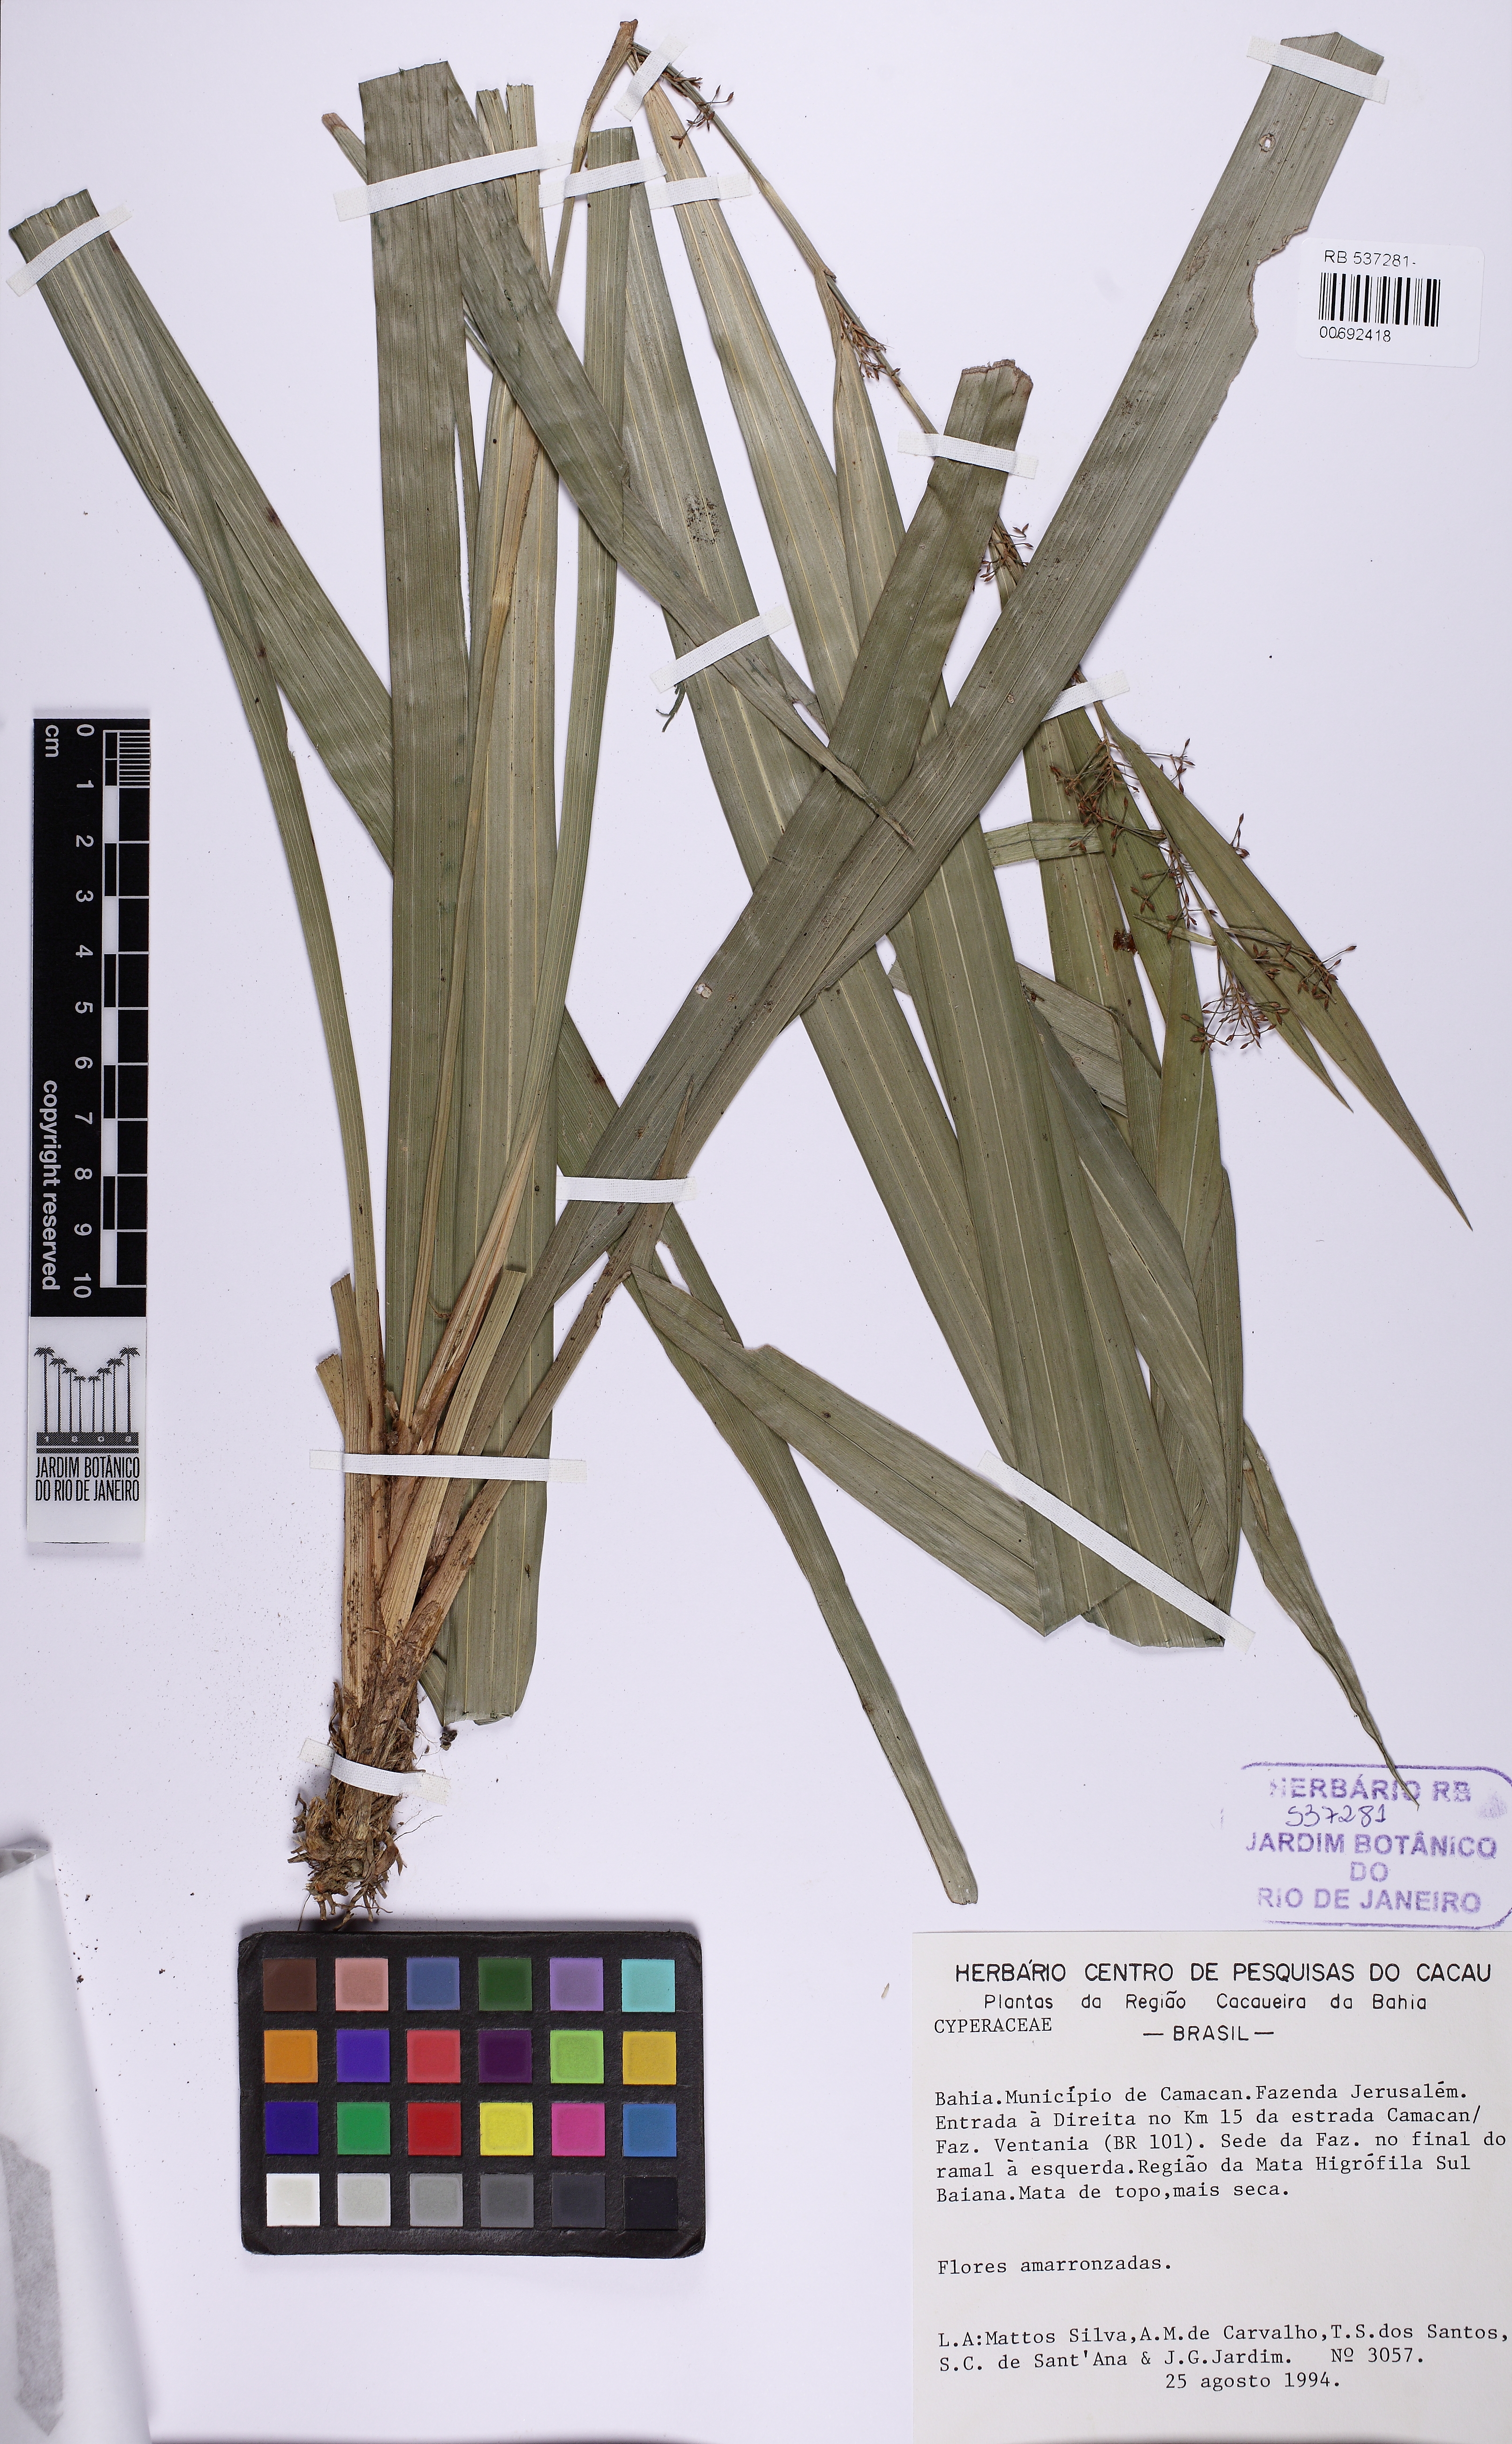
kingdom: Plantae
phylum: Tracheophyta
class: Liliopsida
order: Poales
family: Cyperaceae
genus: Rhynchospora
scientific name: Rhynchospora
